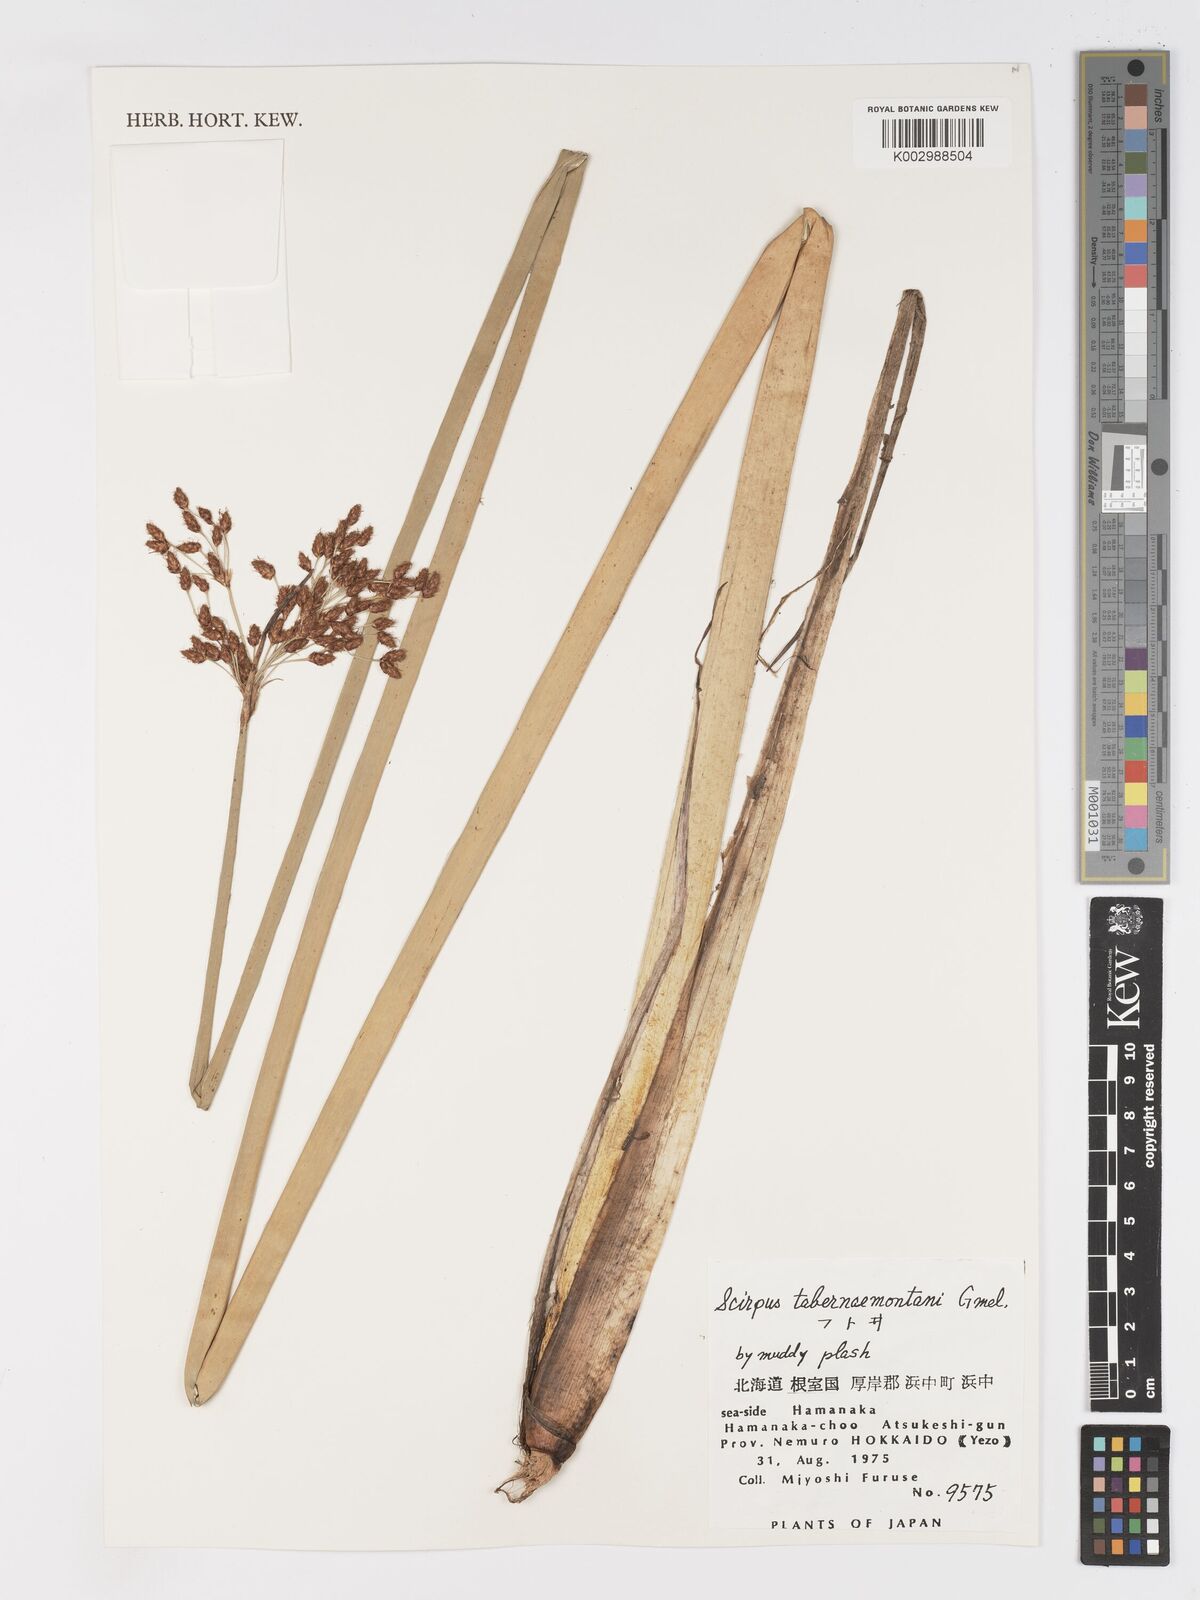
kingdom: Plantae
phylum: Tracheophyta
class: Liliopsida
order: Poales
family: Cyperaceae
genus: Schoenoplectus
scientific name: Schoenoplectus tabernaemontani
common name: Grey club-rush
